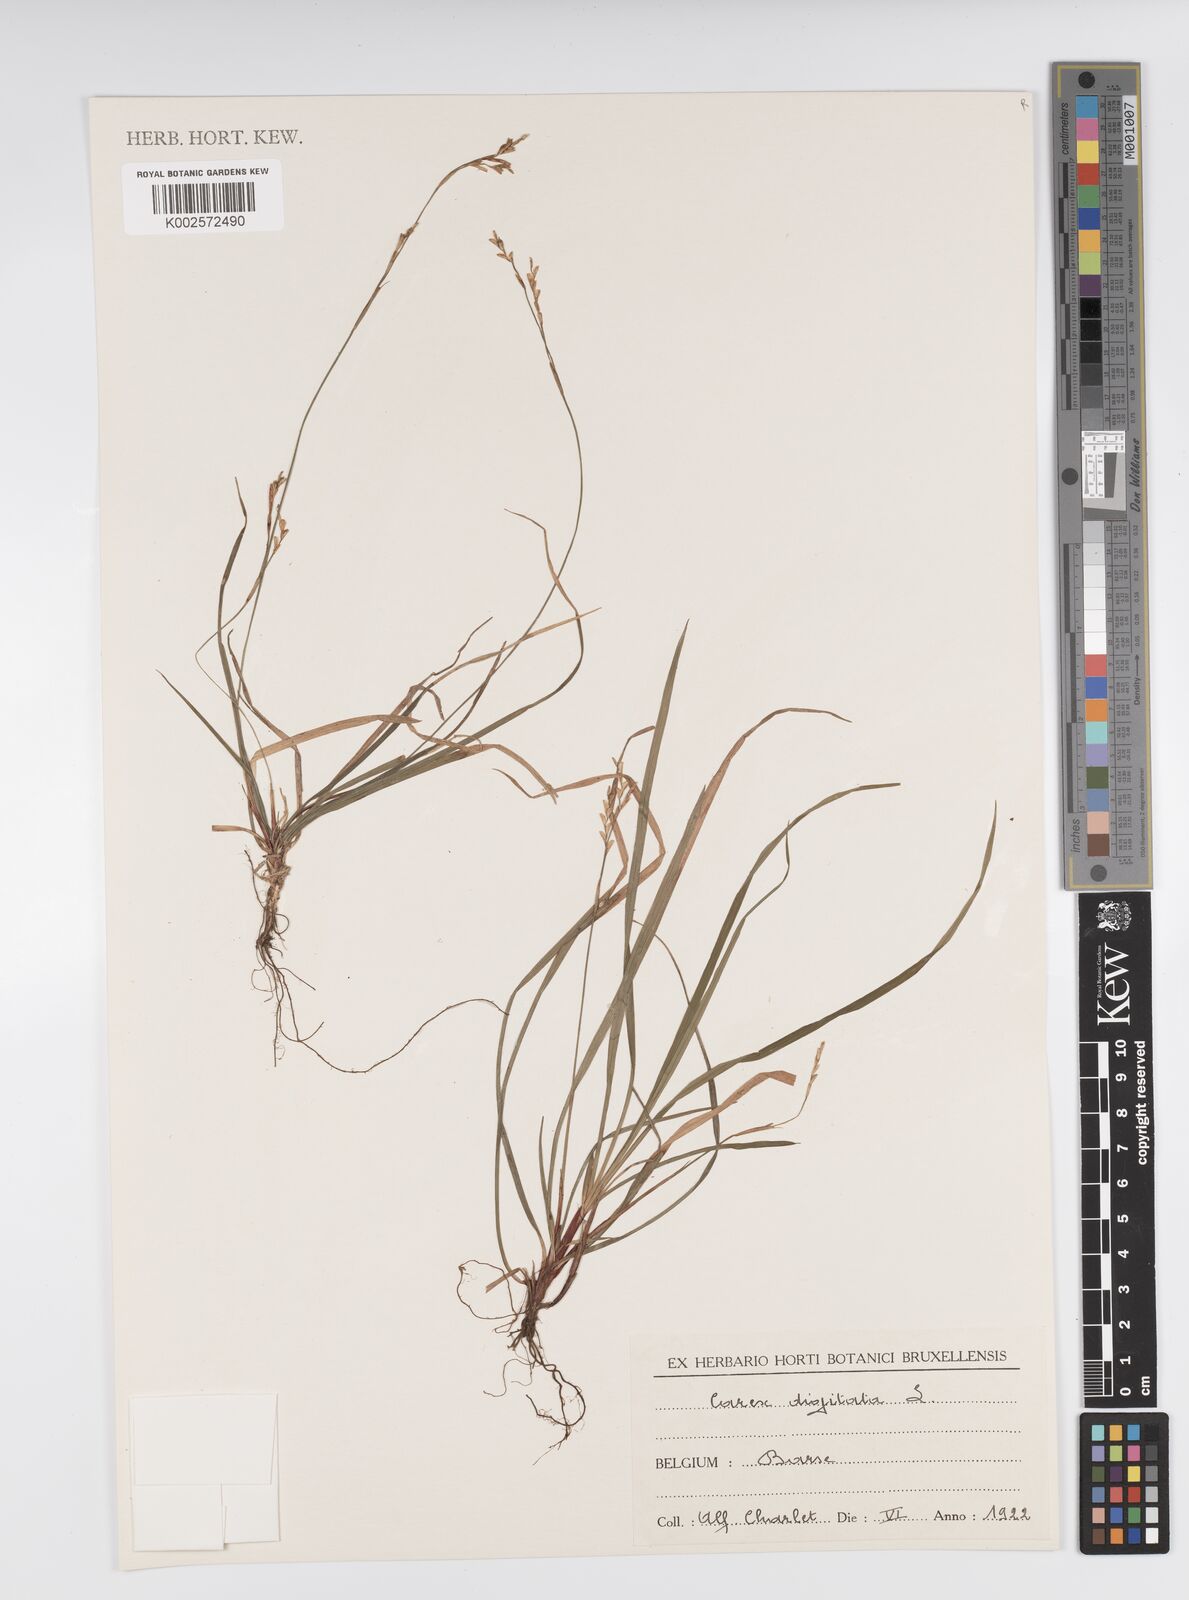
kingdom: Plantae
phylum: Tracheophyta
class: Liliopsida
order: Poales
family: Cyperaceae
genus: Carex
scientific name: Carex digitata
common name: Fingered sedge
